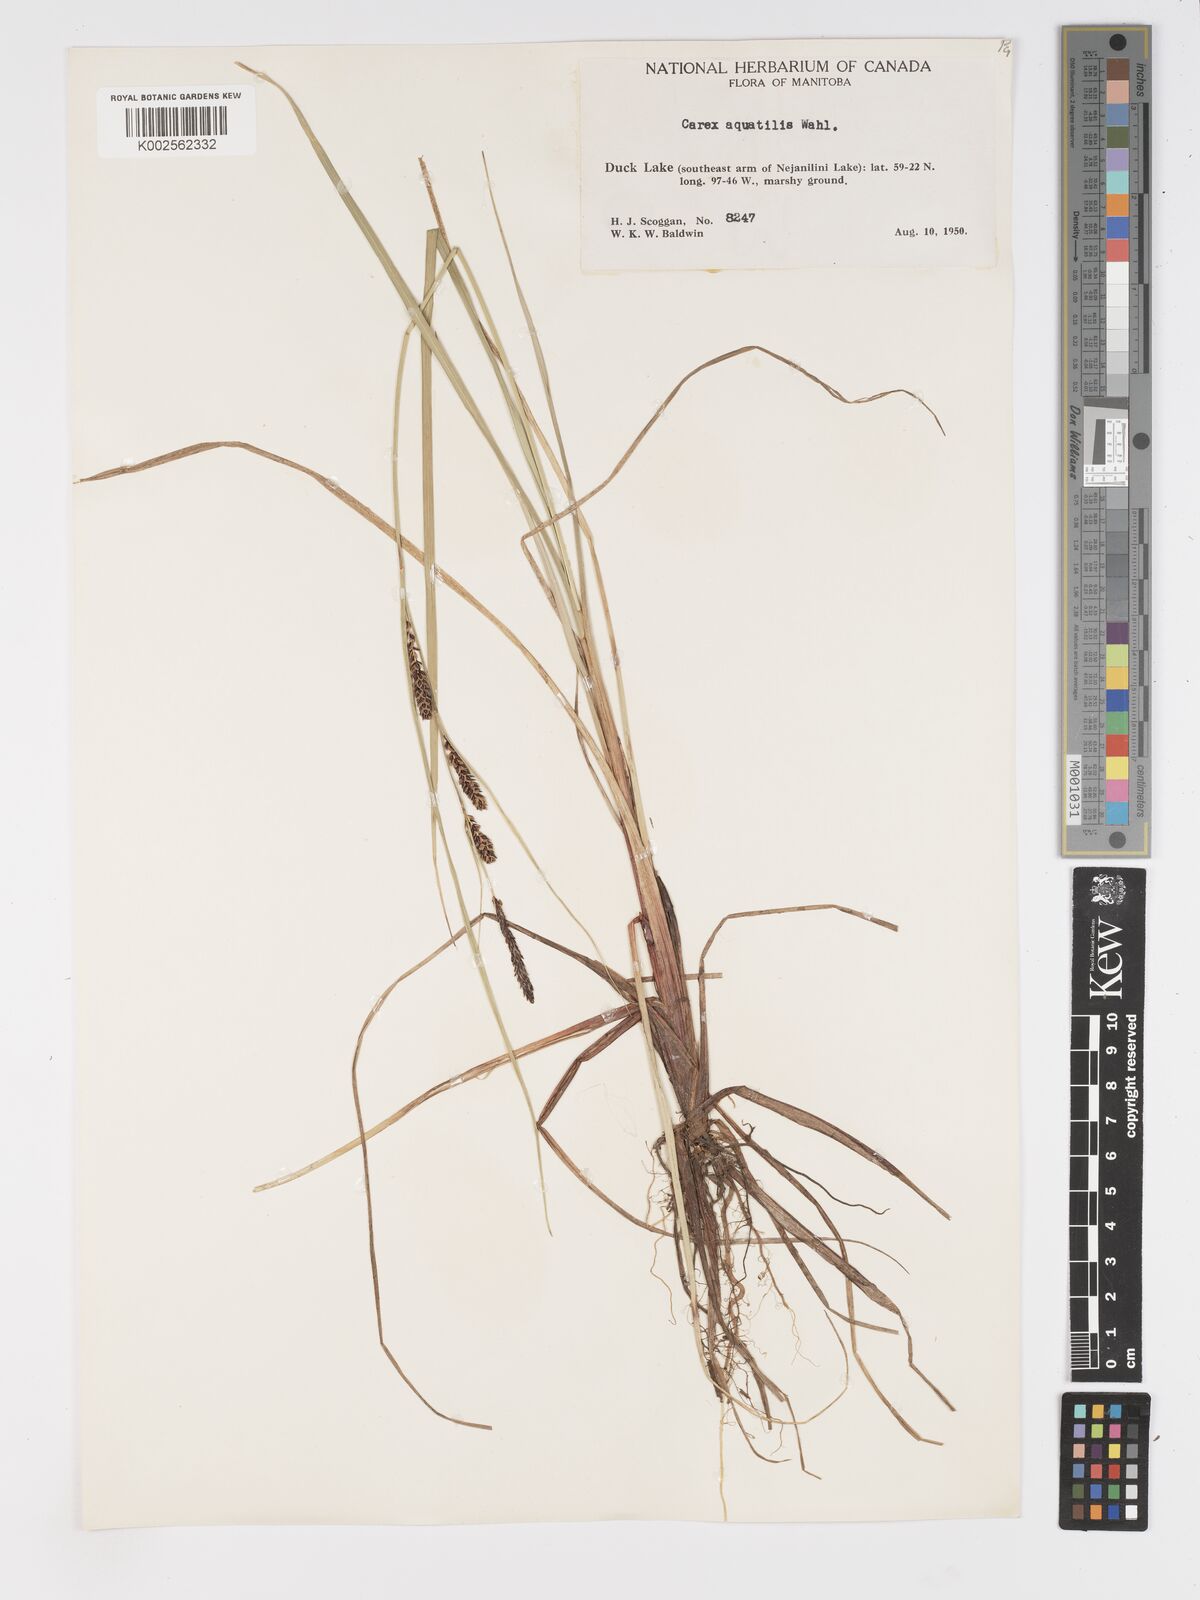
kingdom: Plantae
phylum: Tracheophyta
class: Liliopsida
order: Poales
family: Cyperaceae
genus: Carex
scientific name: Carex aquatilis
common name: Water sedge
